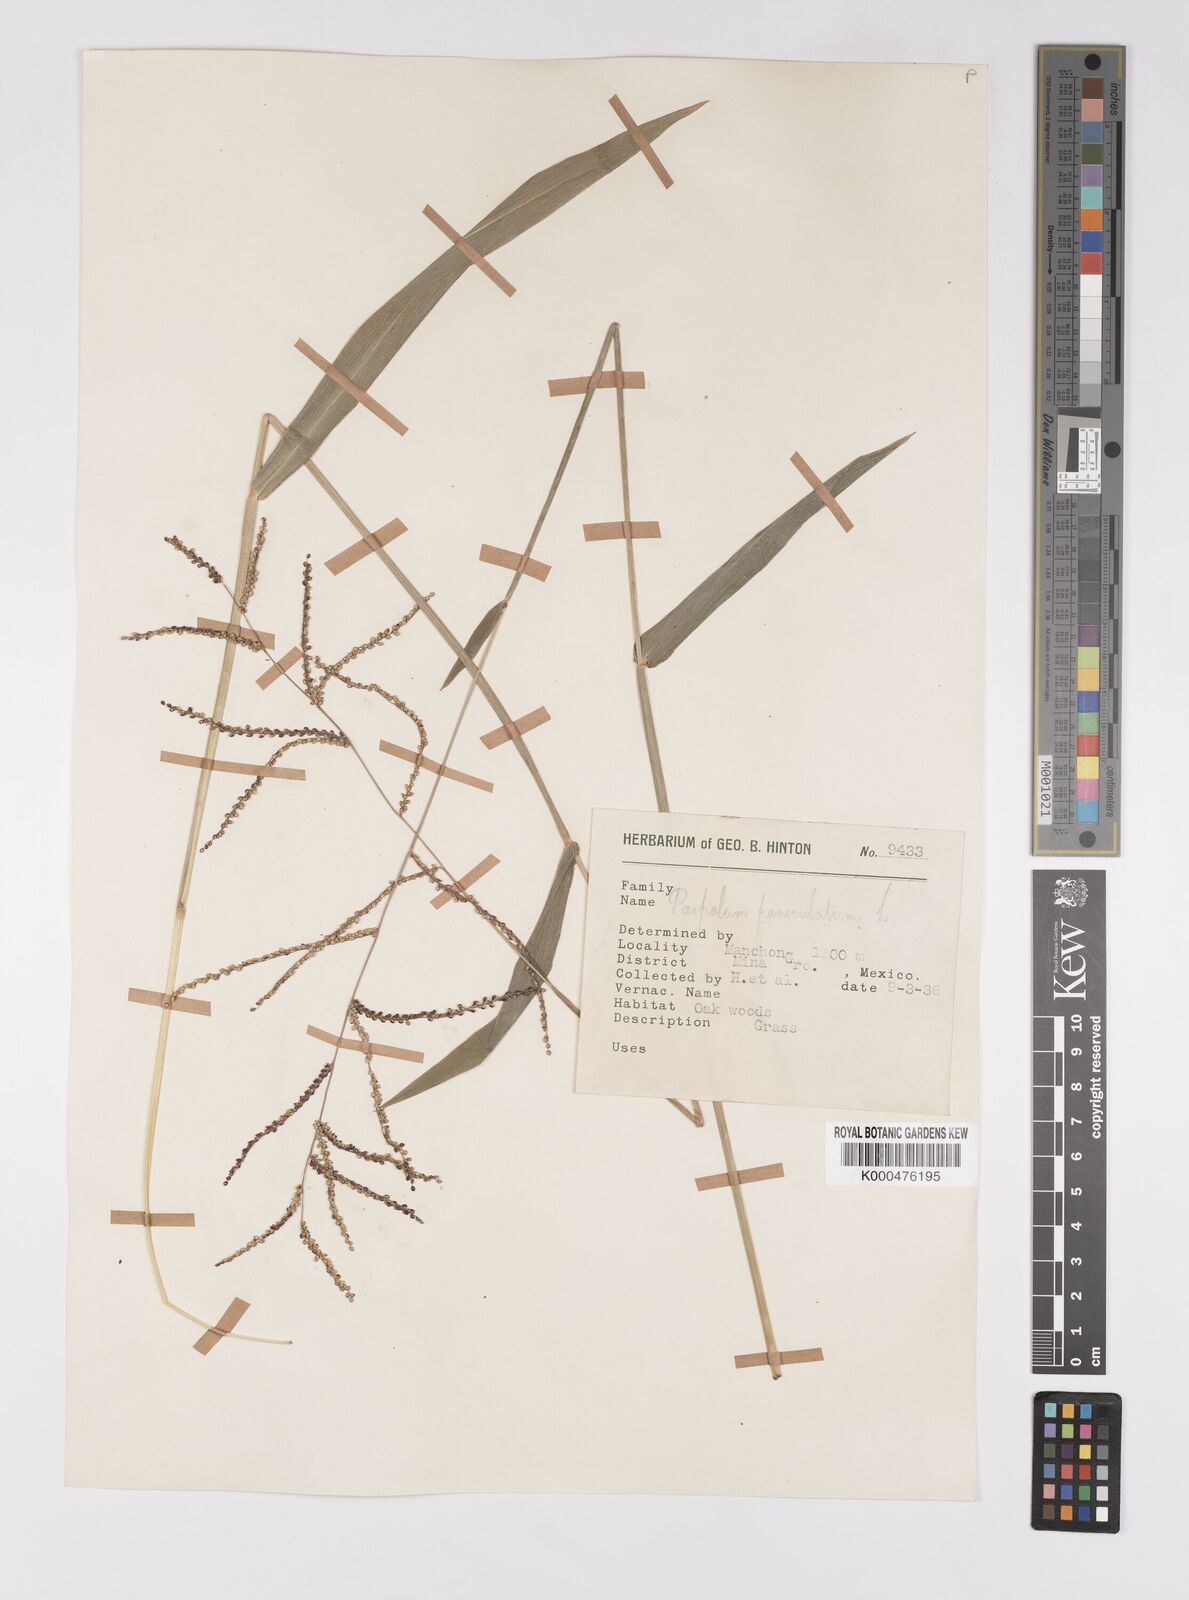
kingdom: Plantae
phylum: Tracheophyta
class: Liliopsida
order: Poales
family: Poaceae
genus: Paspalum
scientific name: Paspalum paniculatum
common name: Arrocillo
